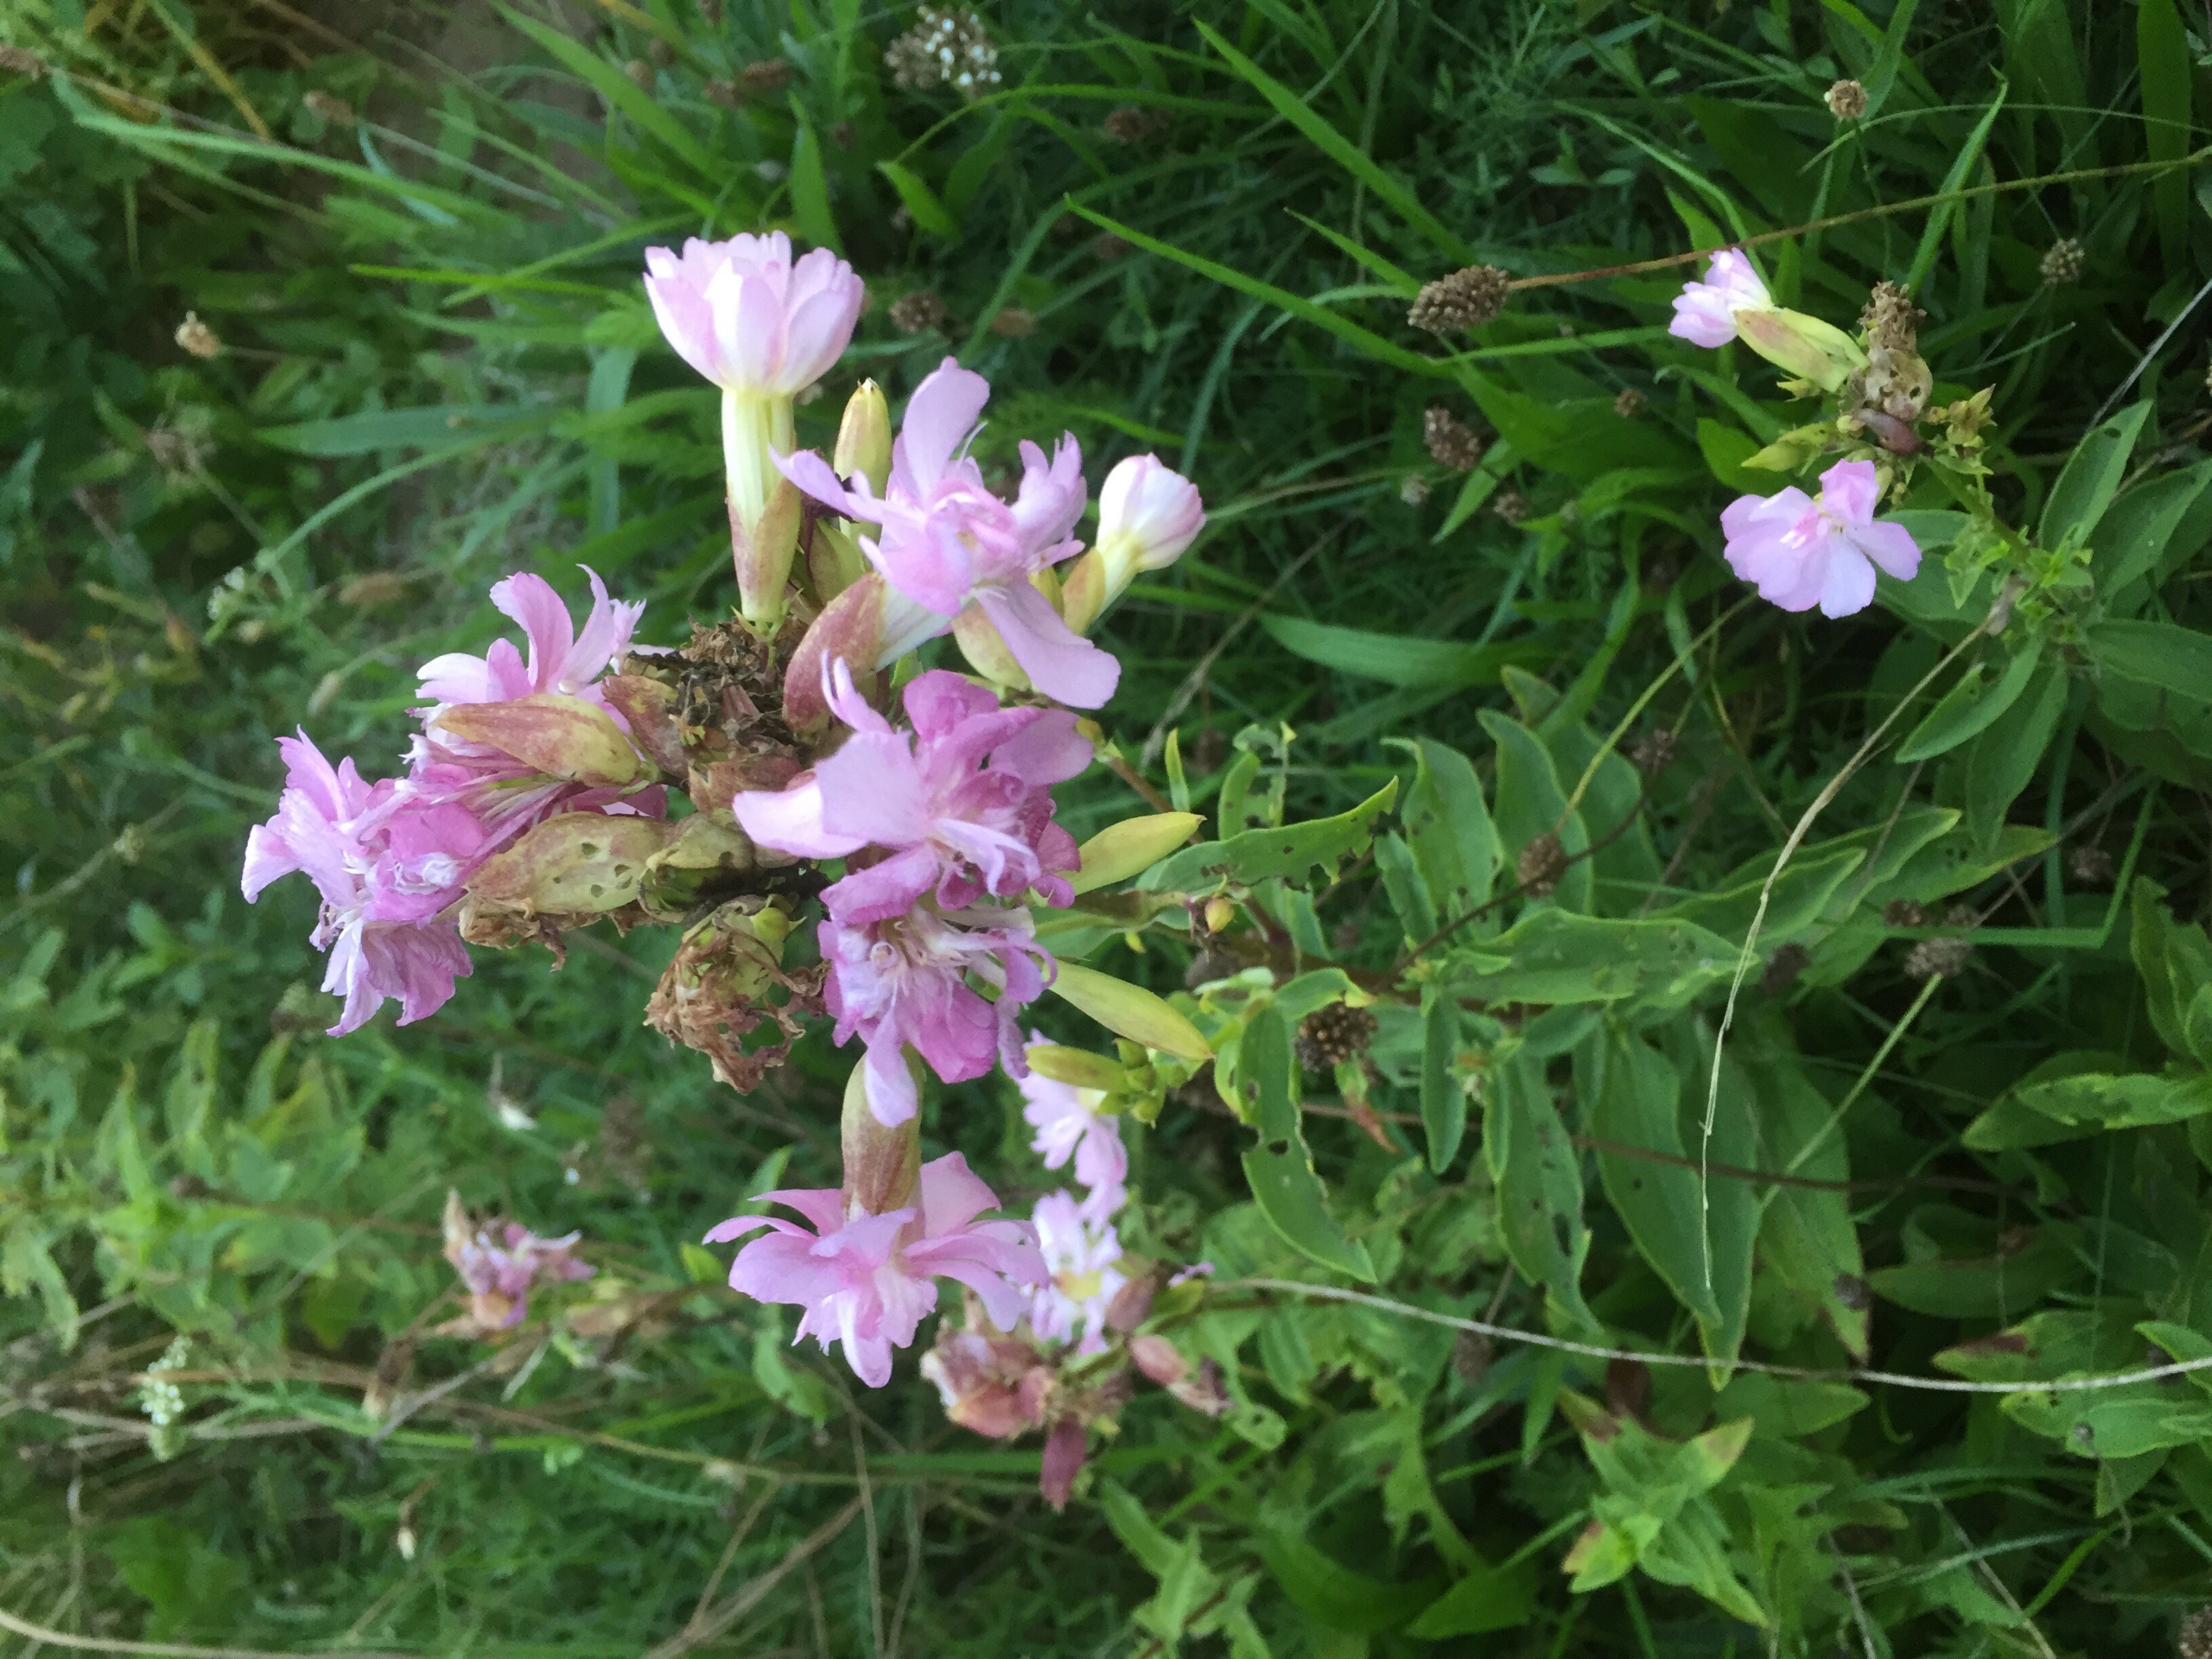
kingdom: Plantae
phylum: Tracheophyta
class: Magnoliopsida
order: Caryophyllales
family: Caryophyllaceae
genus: Saponaria
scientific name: Saponaria officinalis
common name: Sæbeurt
